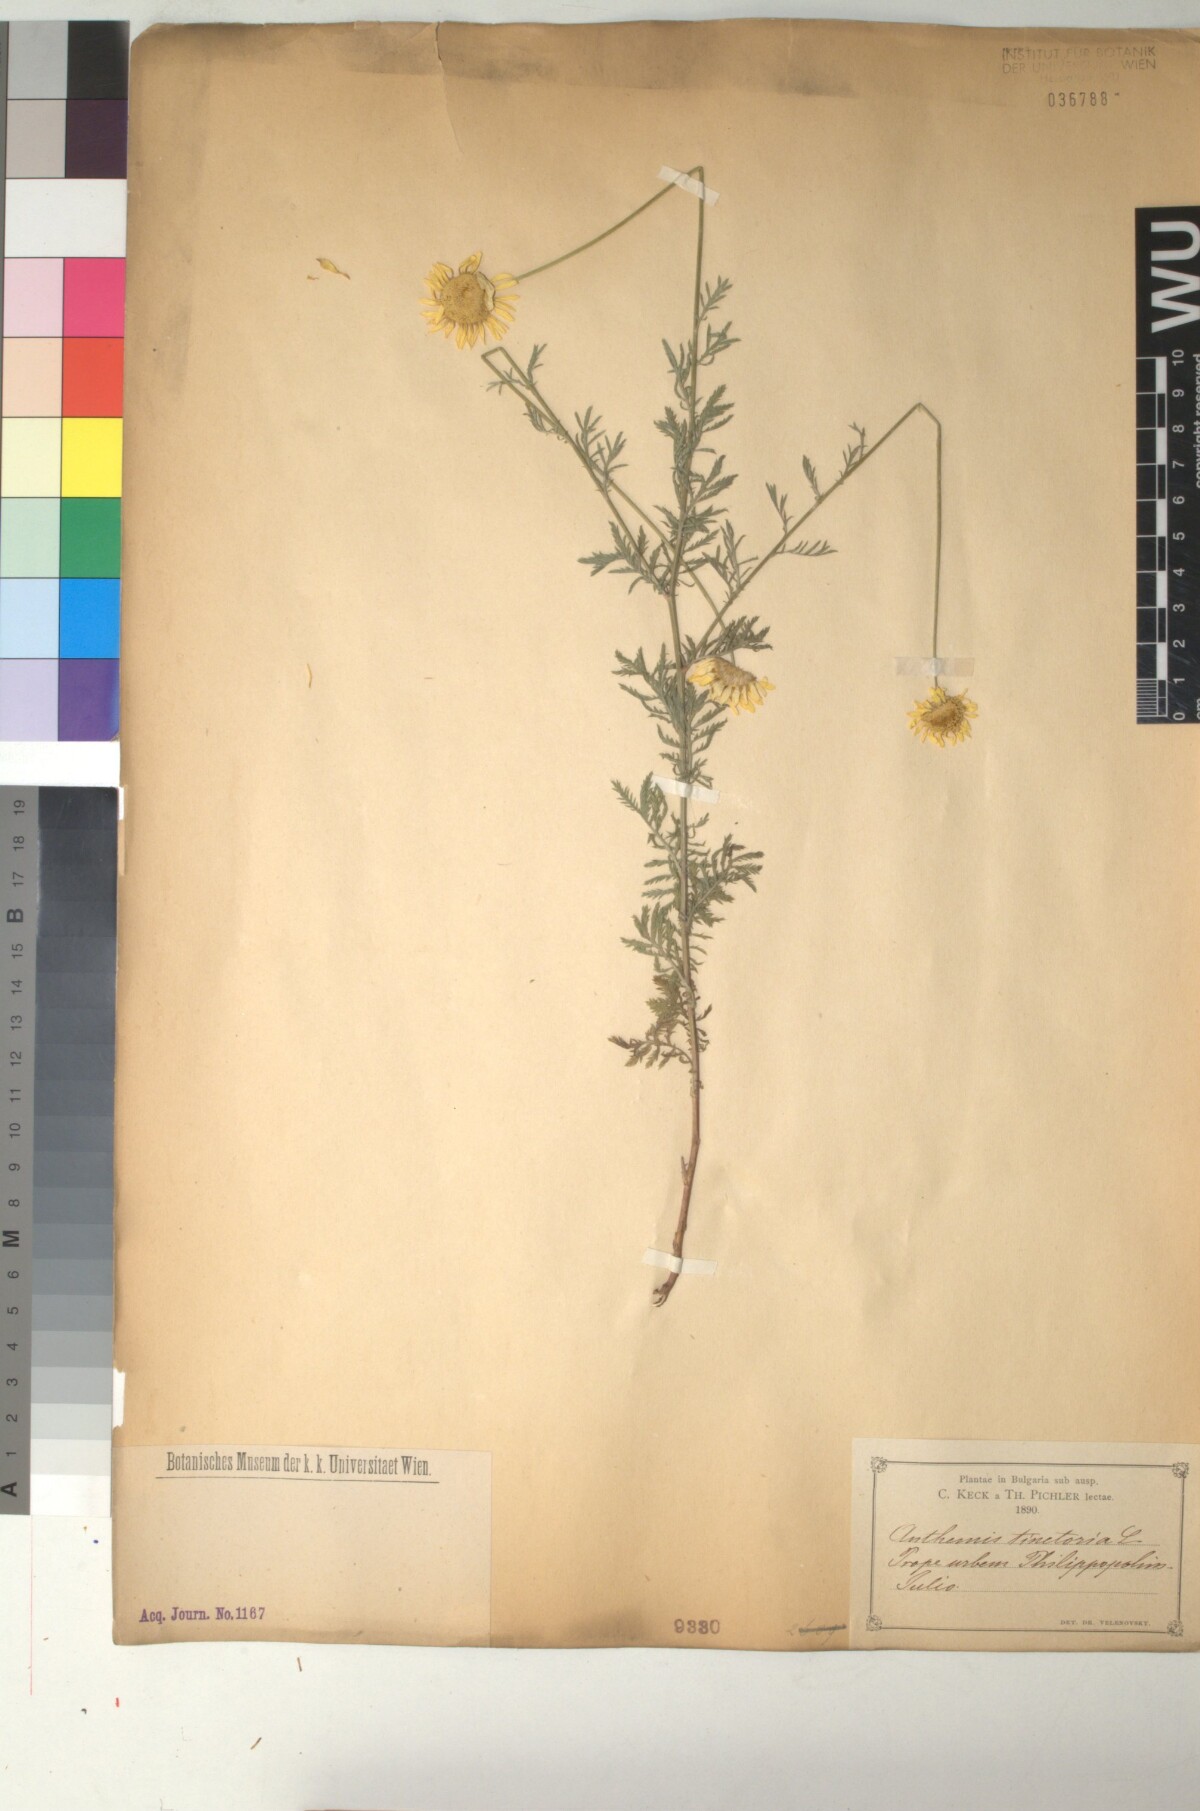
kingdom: Plantae
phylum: Tracheophyta
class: Magnoliopsida
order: Asterales
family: Asteraceae
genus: Cota
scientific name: Cota tinctoria
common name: Golden chamomile
